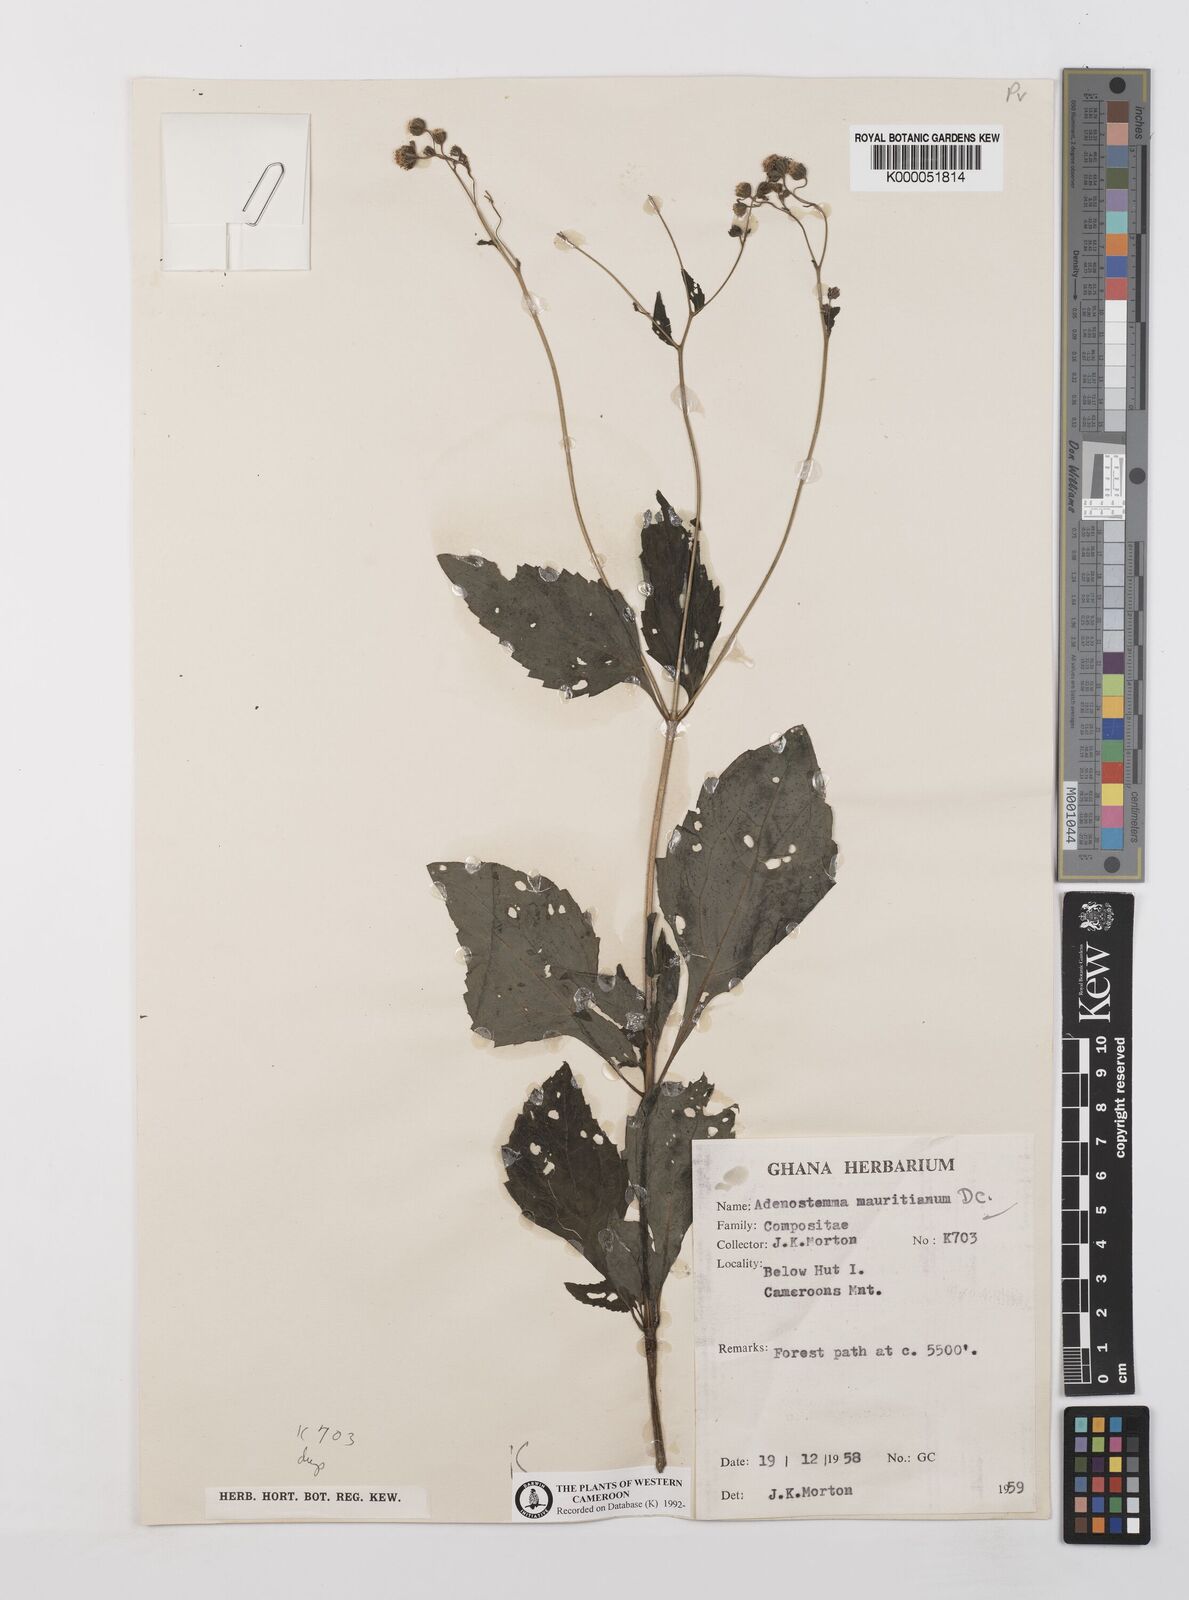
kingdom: Plantae
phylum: Tracheophyta
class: Magnoliopsida
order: Asterales
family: Asteraceae
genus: Adenostemma
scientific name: Adenostemma mauritianum
